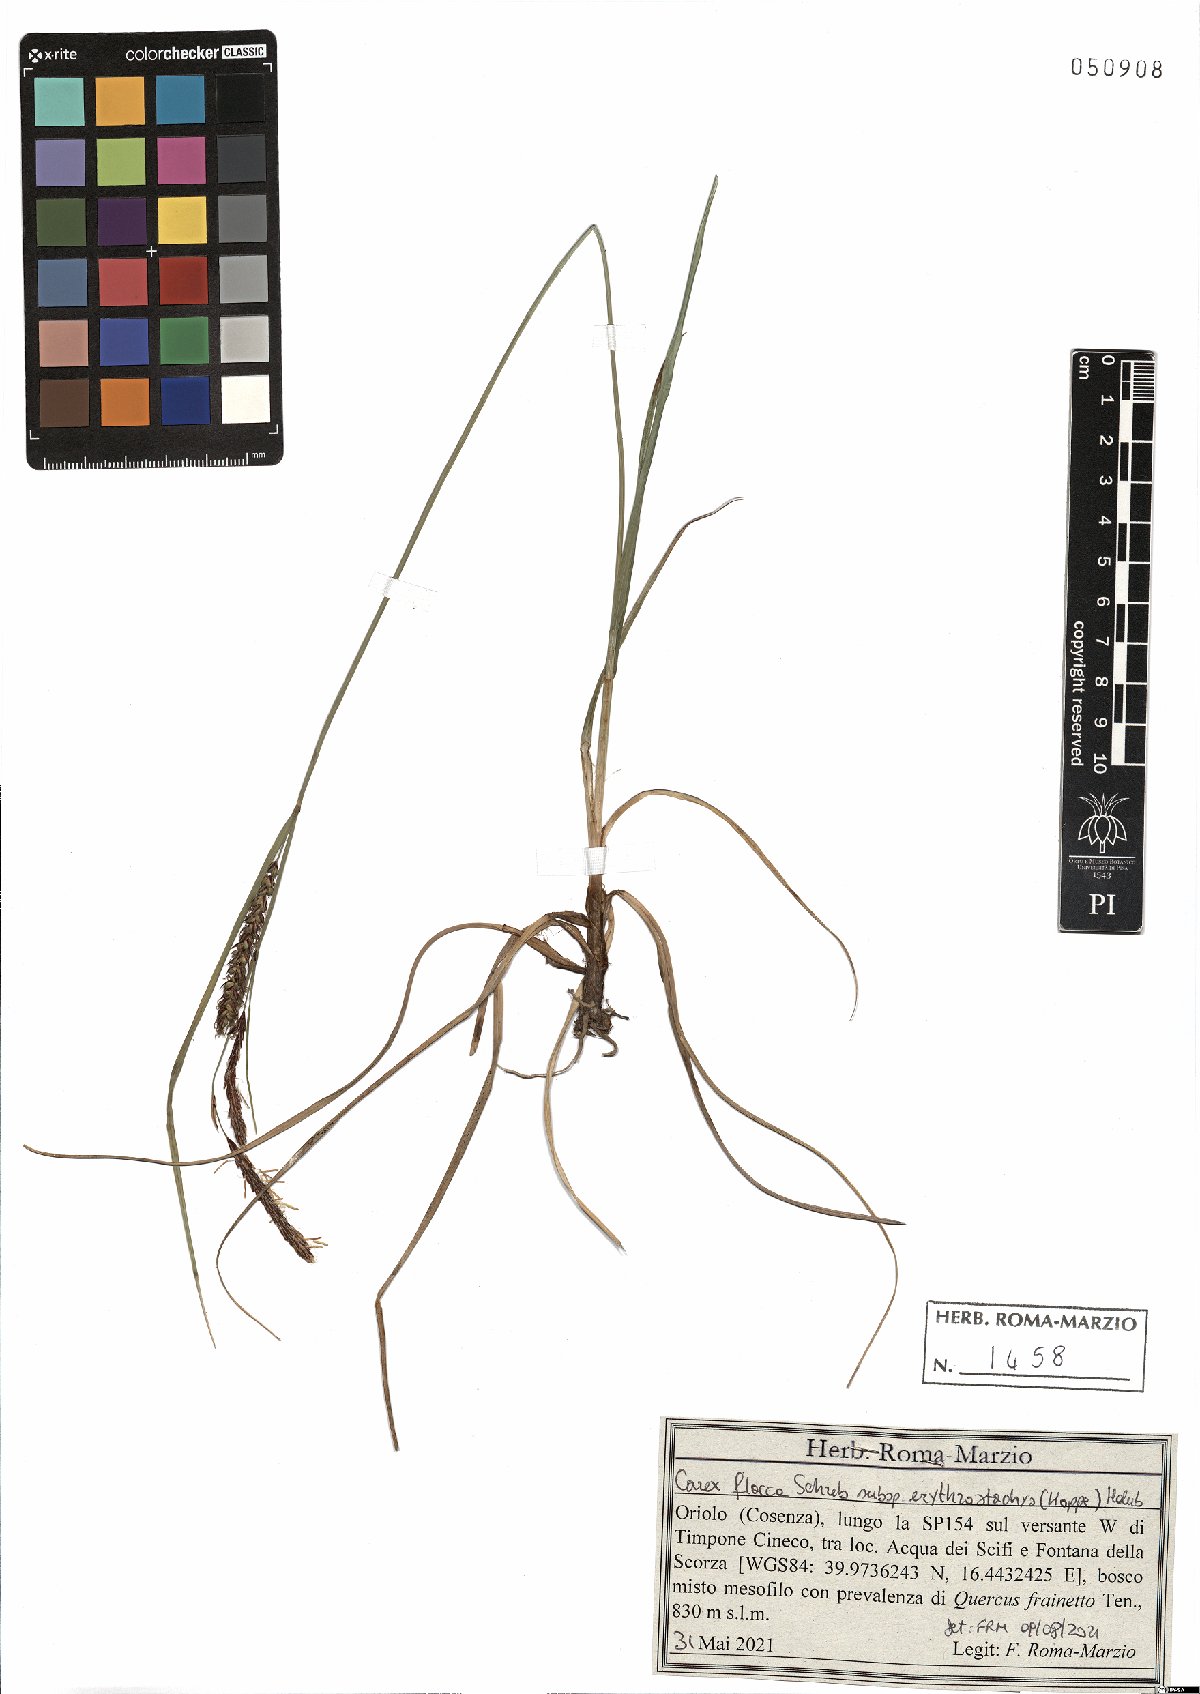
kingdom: Plantae
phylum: Tracheophyta
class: Liliopsida
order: Poales
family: Cyperaceae
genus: Carex
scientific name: Carex flacca
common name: Glaucous sedge
